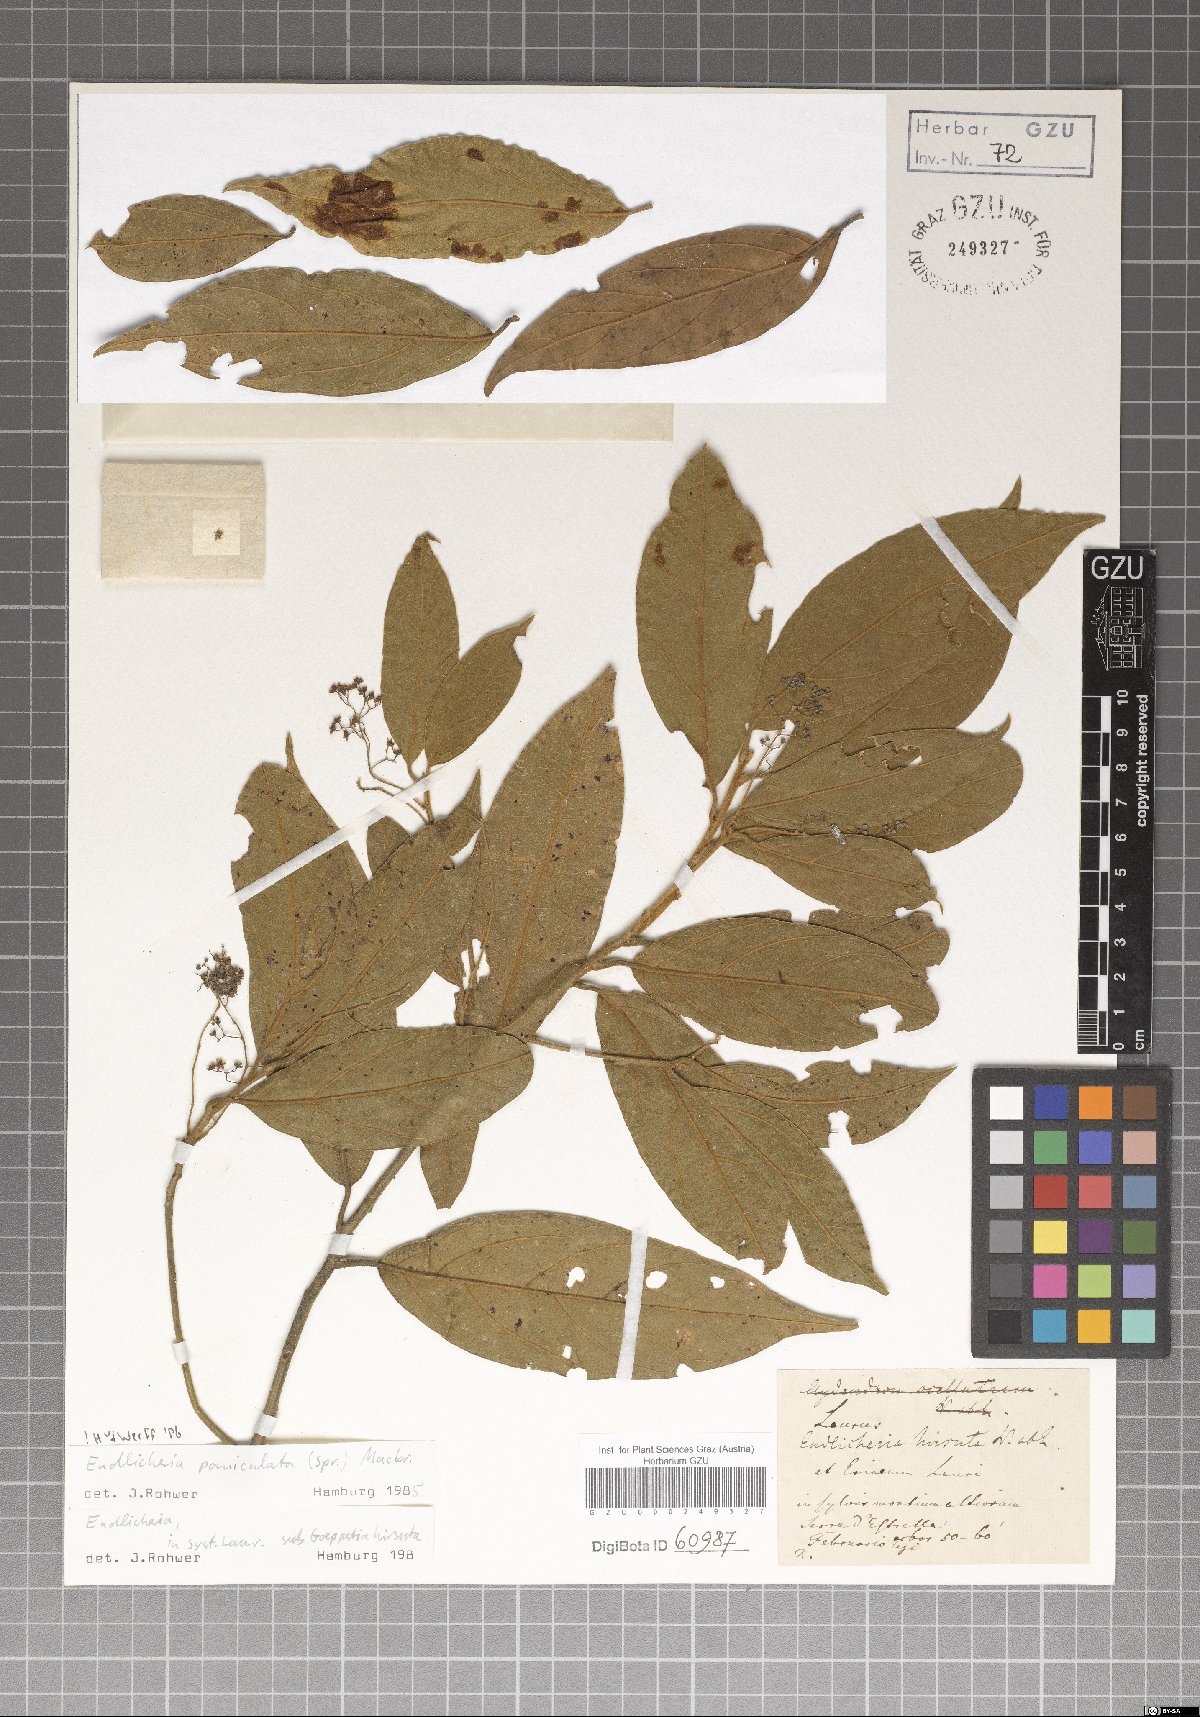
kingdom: Plantae
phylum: Tracheophyta
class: Magnoliopsida
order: Laurales
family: Lauraceae
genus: Endlicheria
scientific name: Endlicheria paniculata
